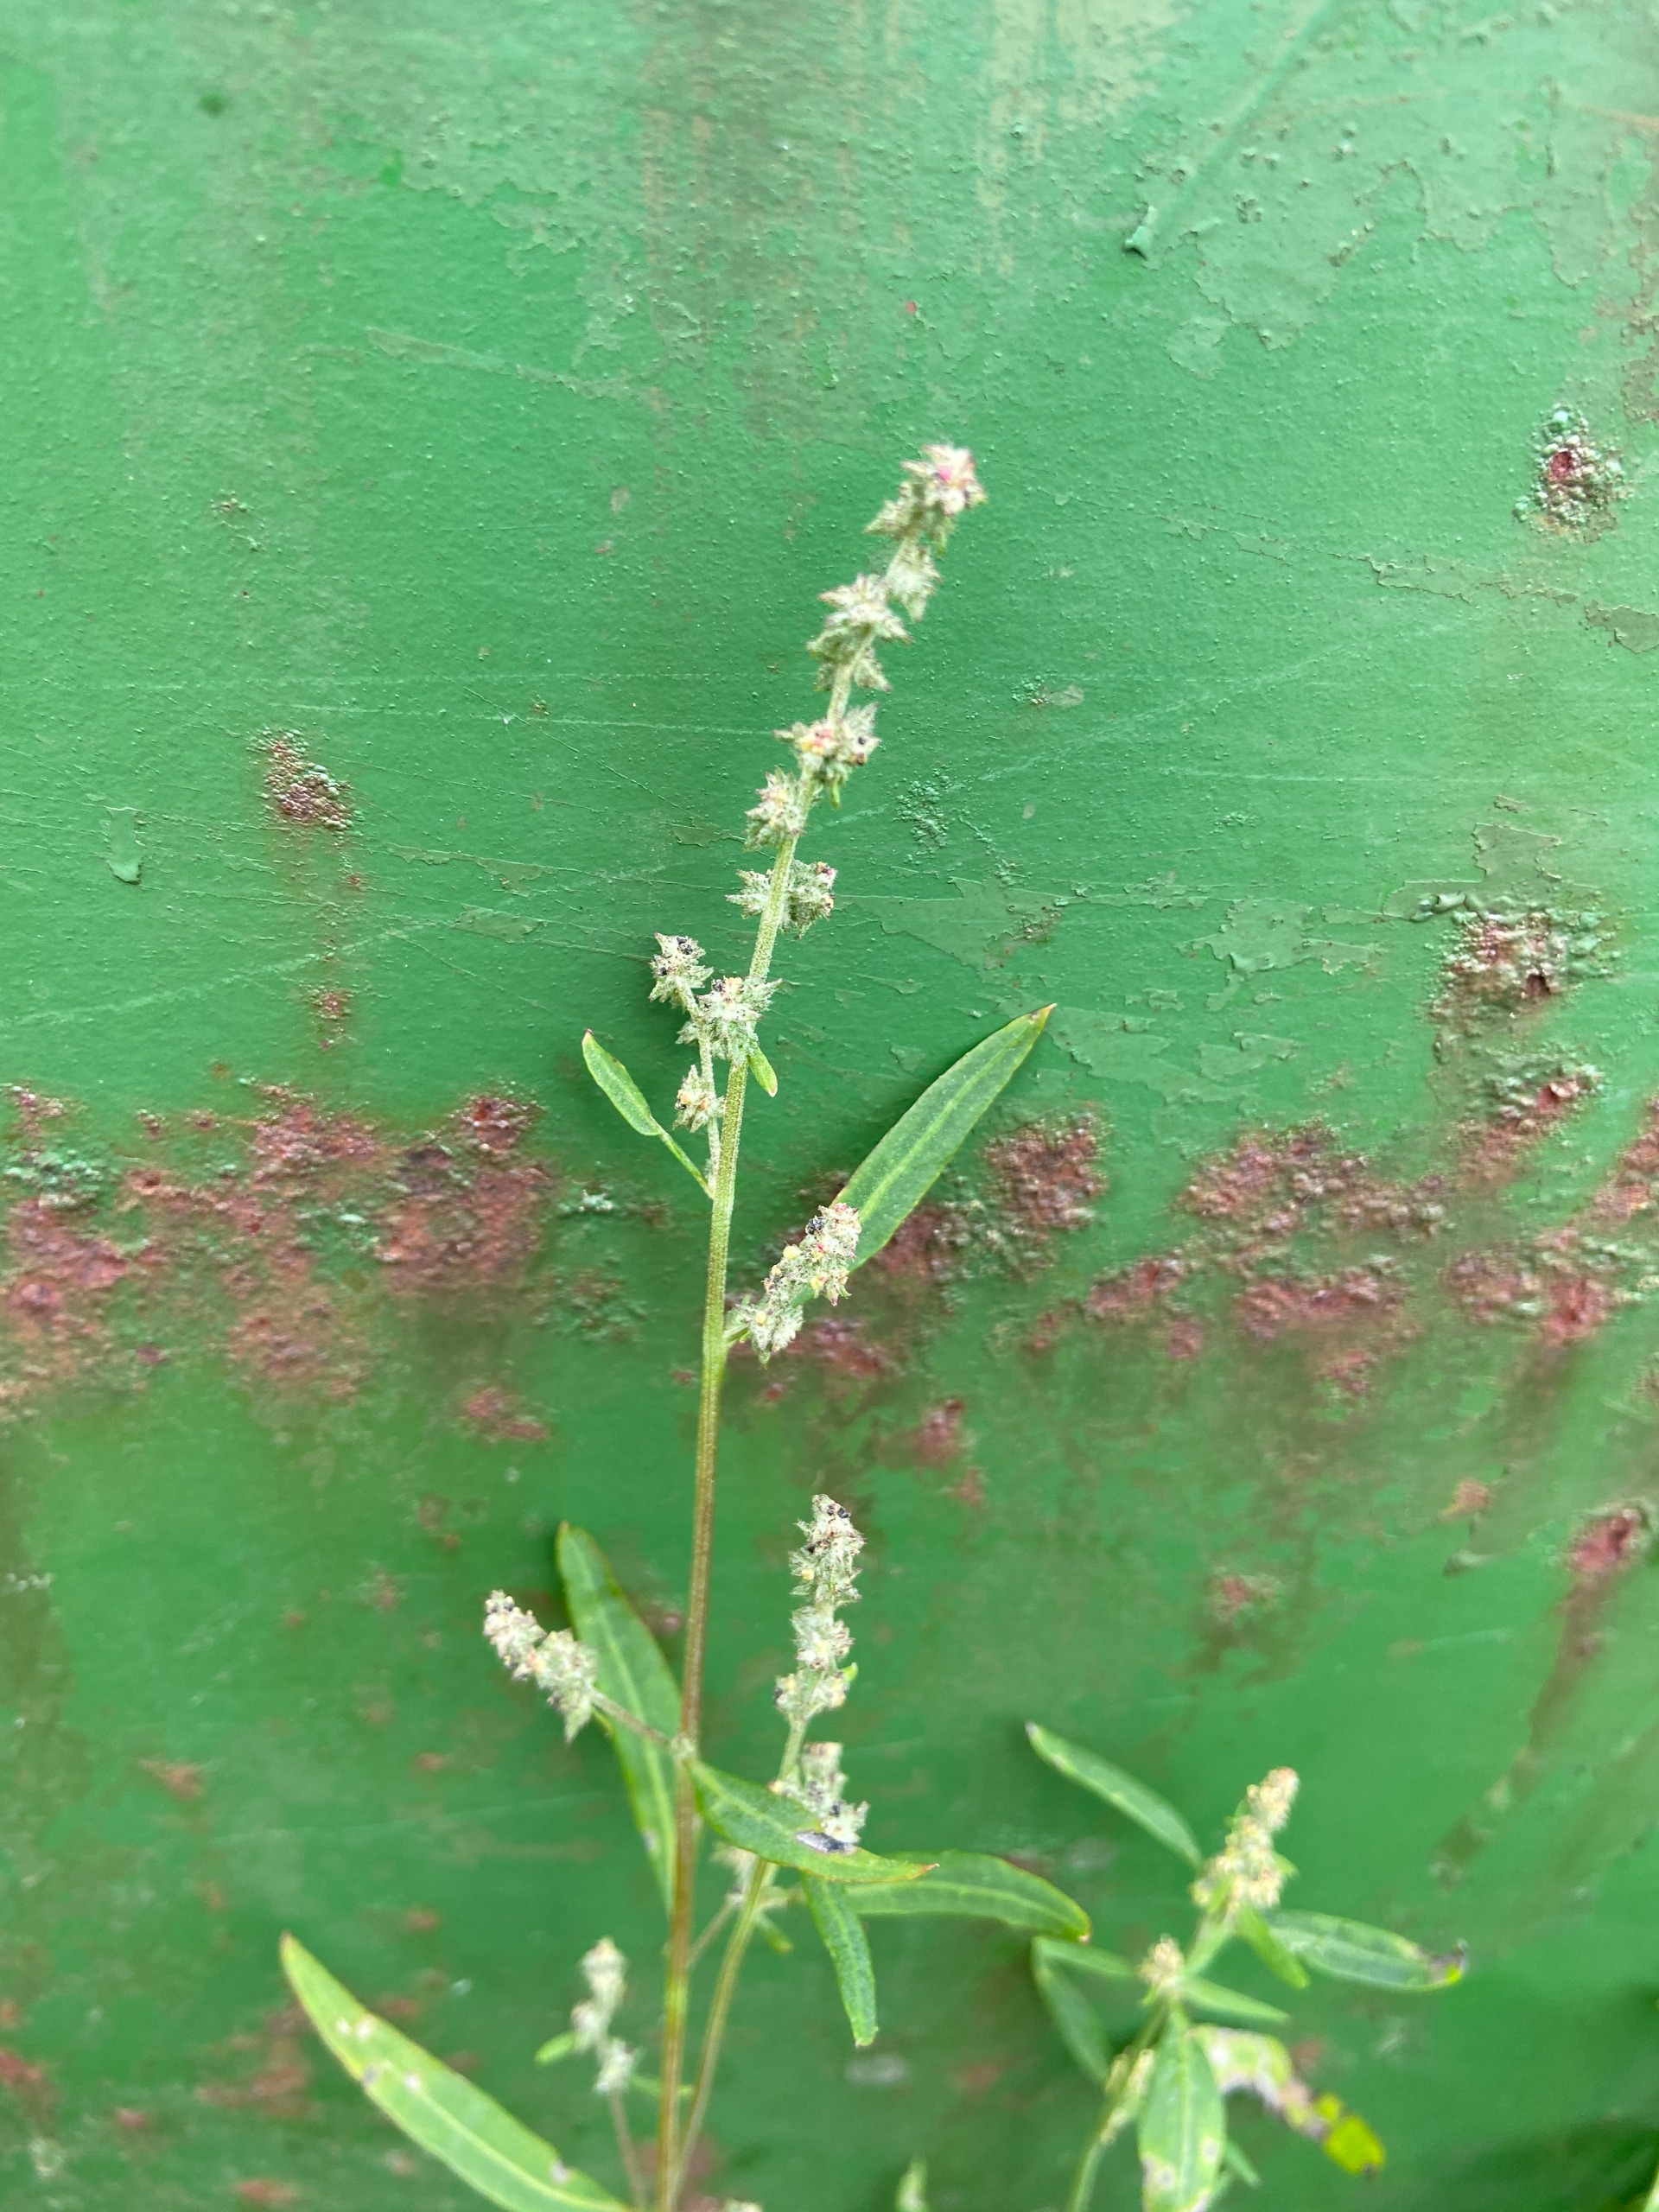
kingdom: Plantae
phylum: Tracheophyta
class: Magnoliopsida
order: Caryophyllales
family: Amaranthaceae
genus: Atriplex
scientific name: Atriplex patula
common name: Svine-mælde
